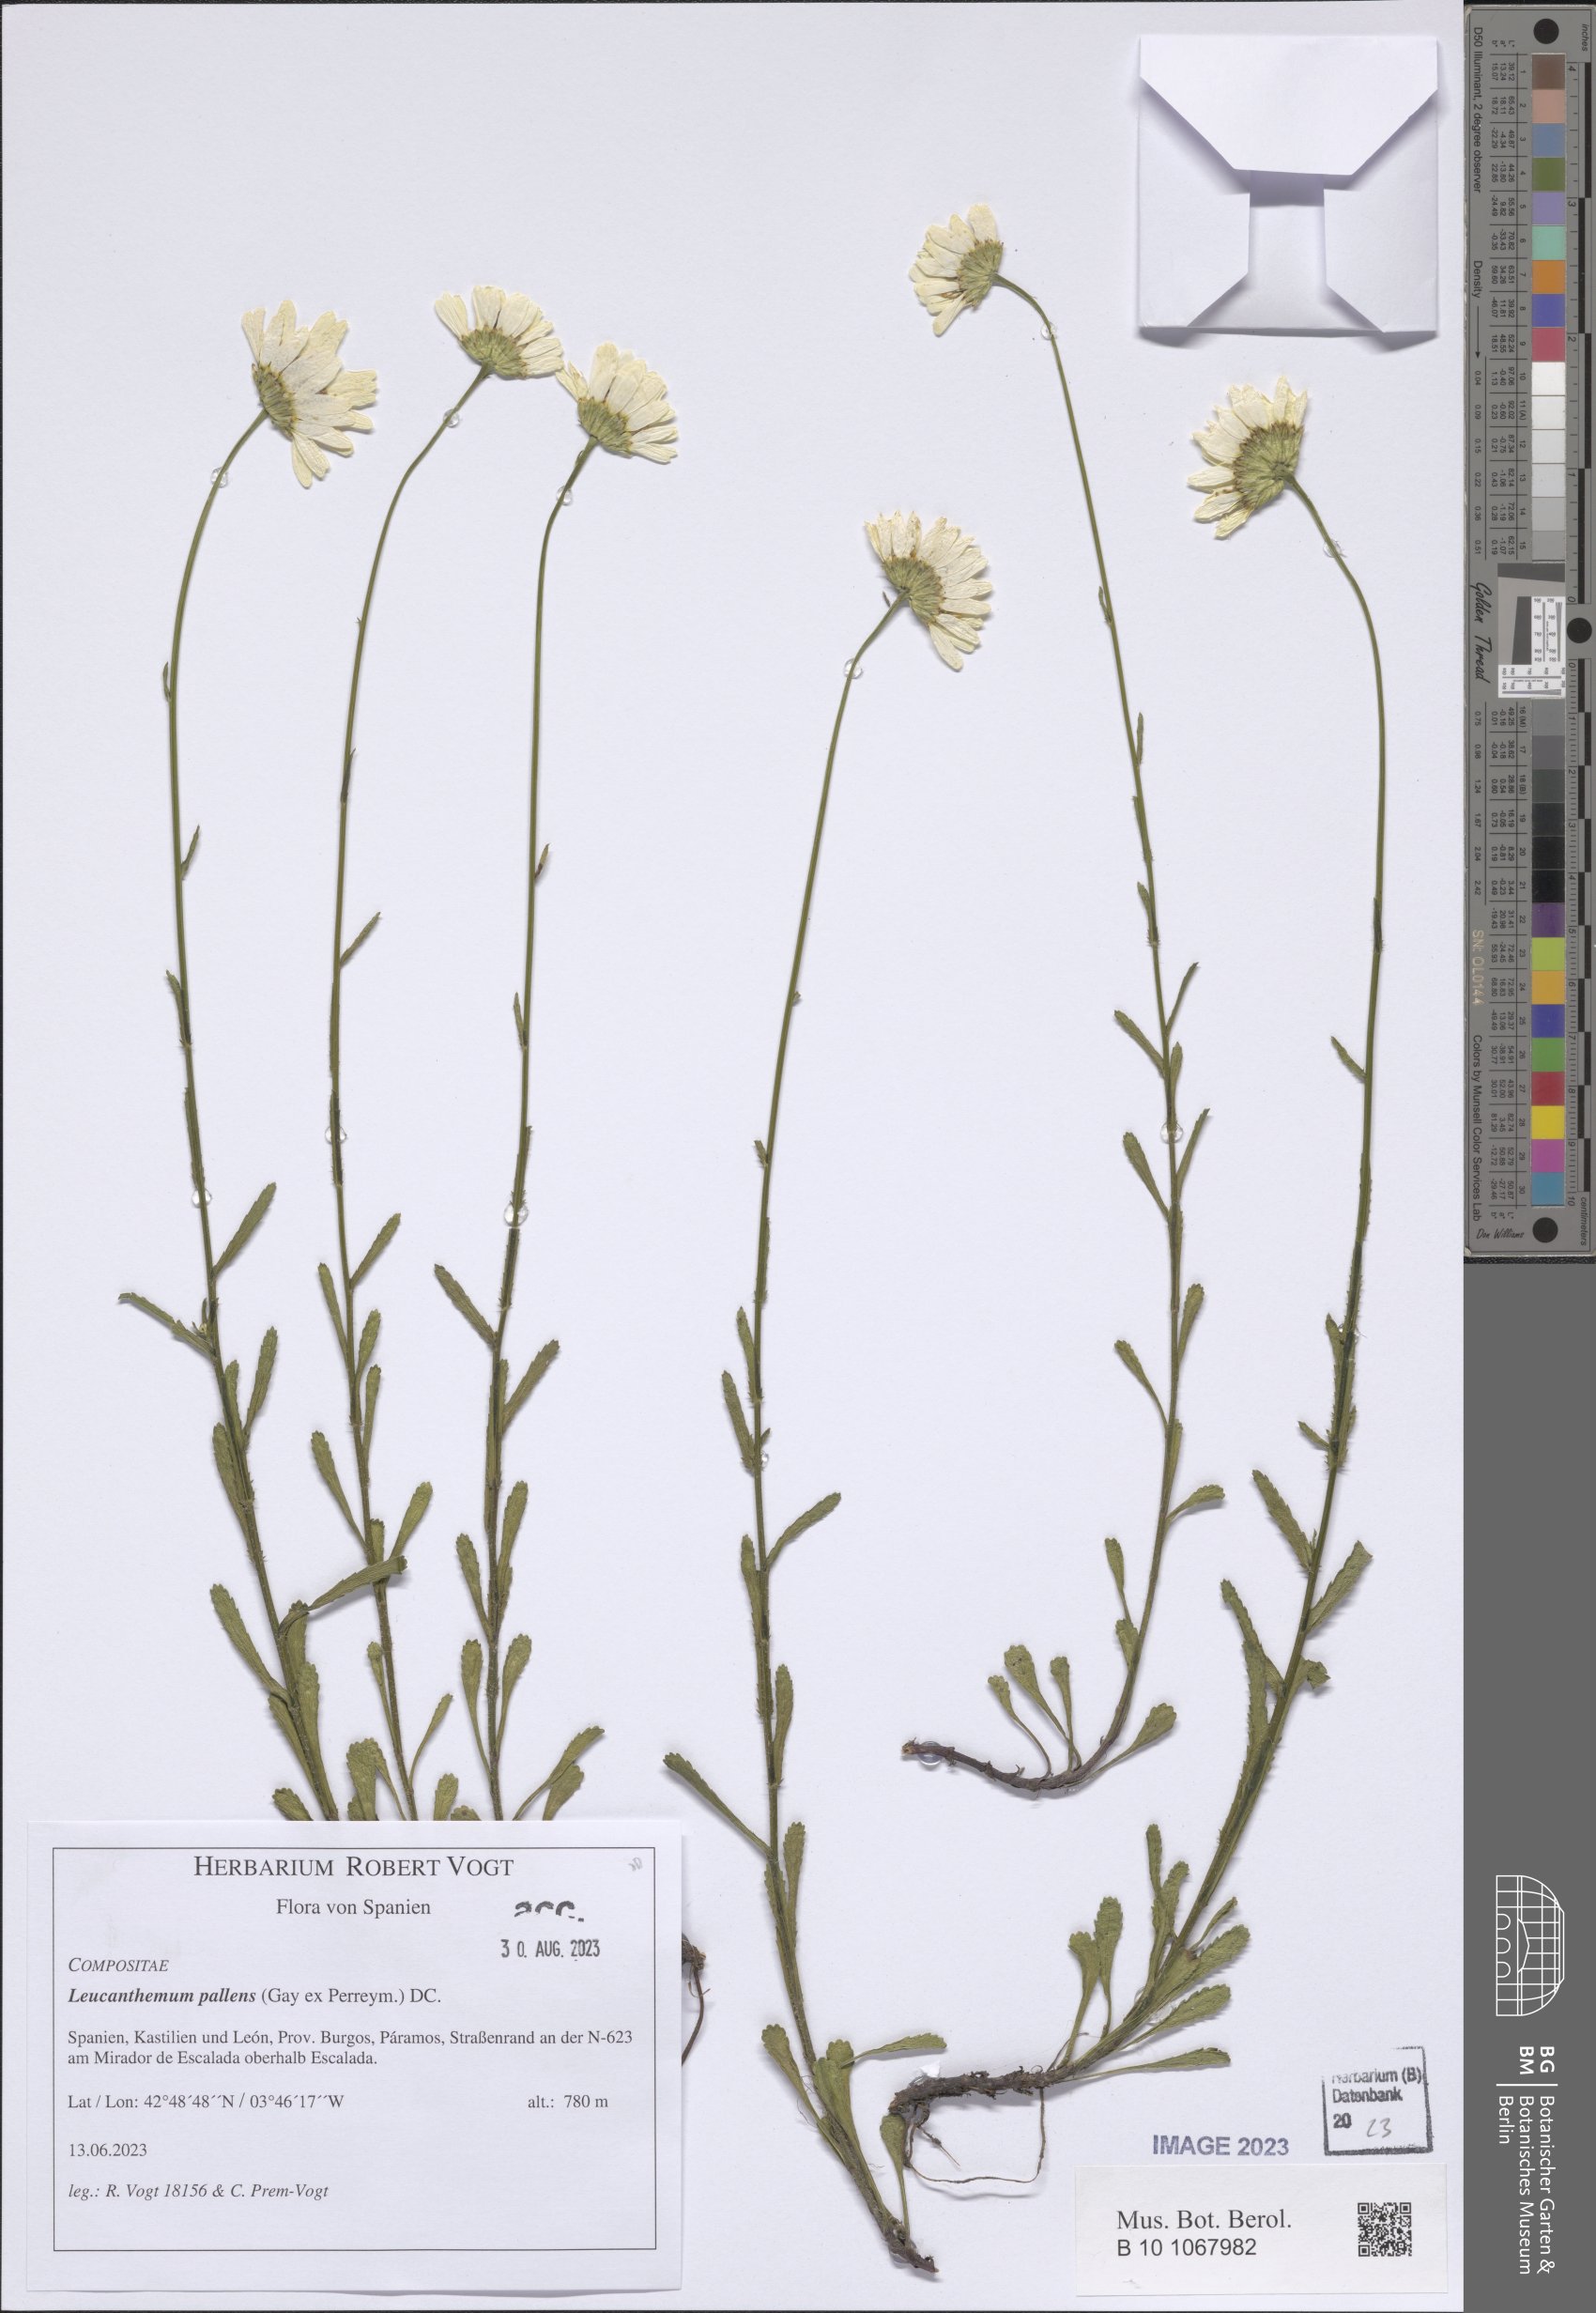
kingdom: Plantae
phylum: Tracheophyta
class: Magnoliopsida
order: Asterales
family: Asteraceae
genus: Leucanthemum
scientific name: Leucanthemum pallens
